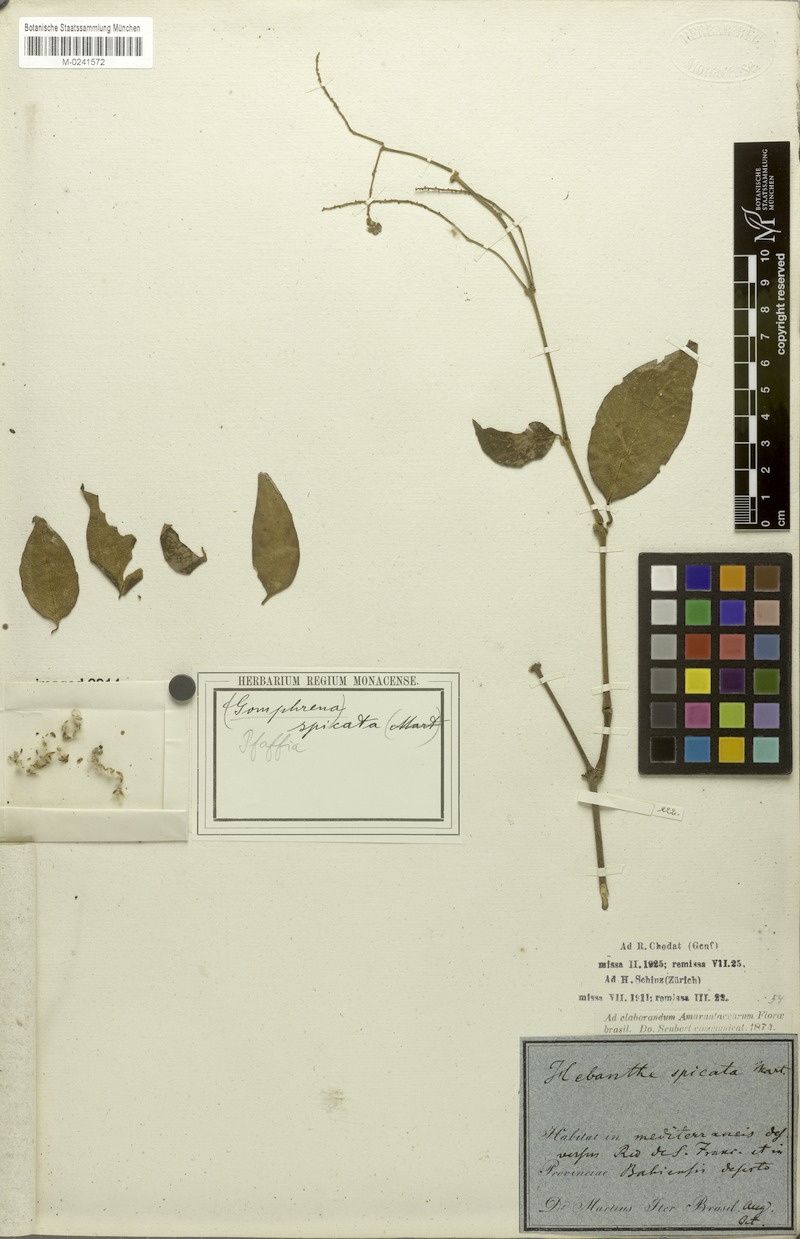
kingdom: Plantae
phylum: Tracheophyta
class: Magnoliopsida
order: Caryophyllales
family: Amaranthaceae
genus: Hebanthe
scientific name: Hebanthe spicata
